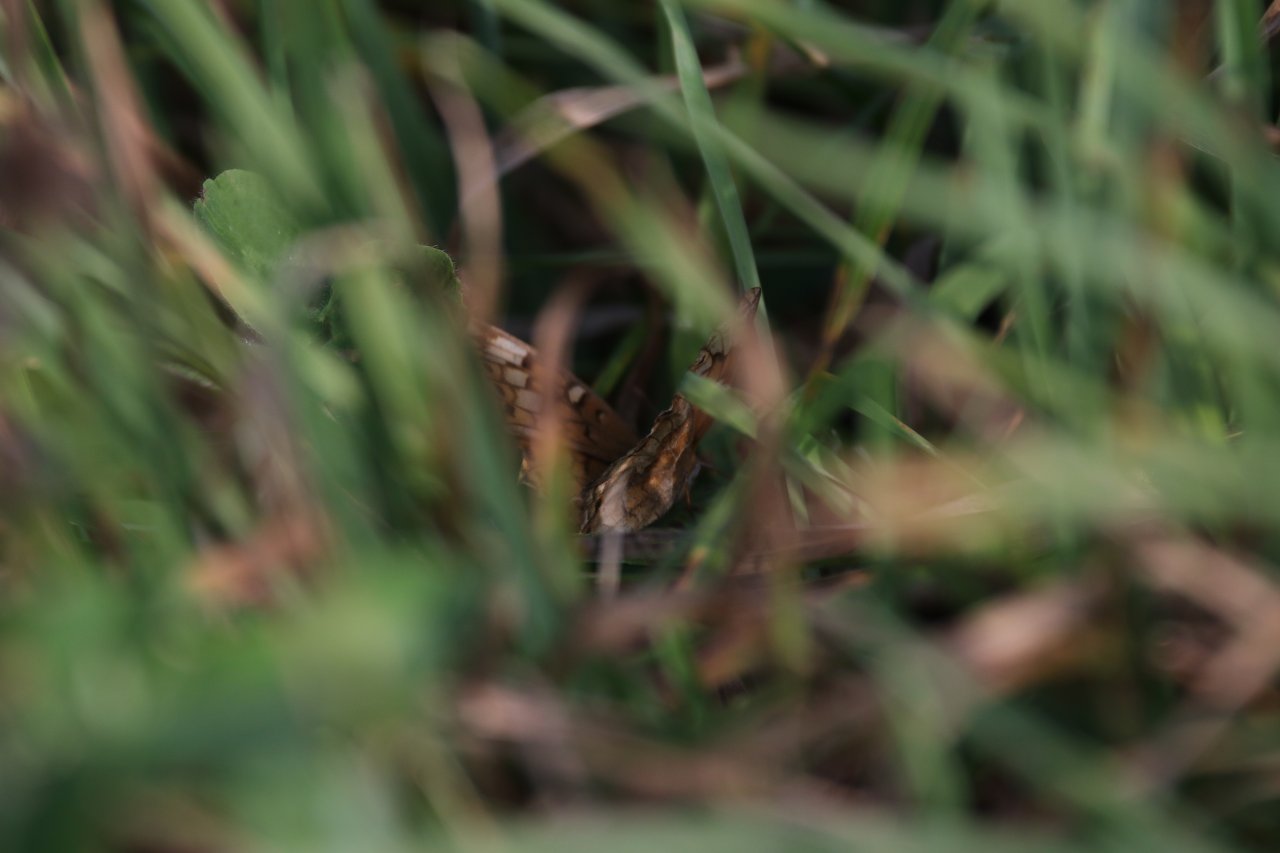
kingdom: Animalia
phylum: Arthropoda
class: Insecta
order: Lepidoptera
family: Nymphalidae
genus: Euptoieta
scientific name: Euptoieta claudia
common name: Variegated Fritillary
